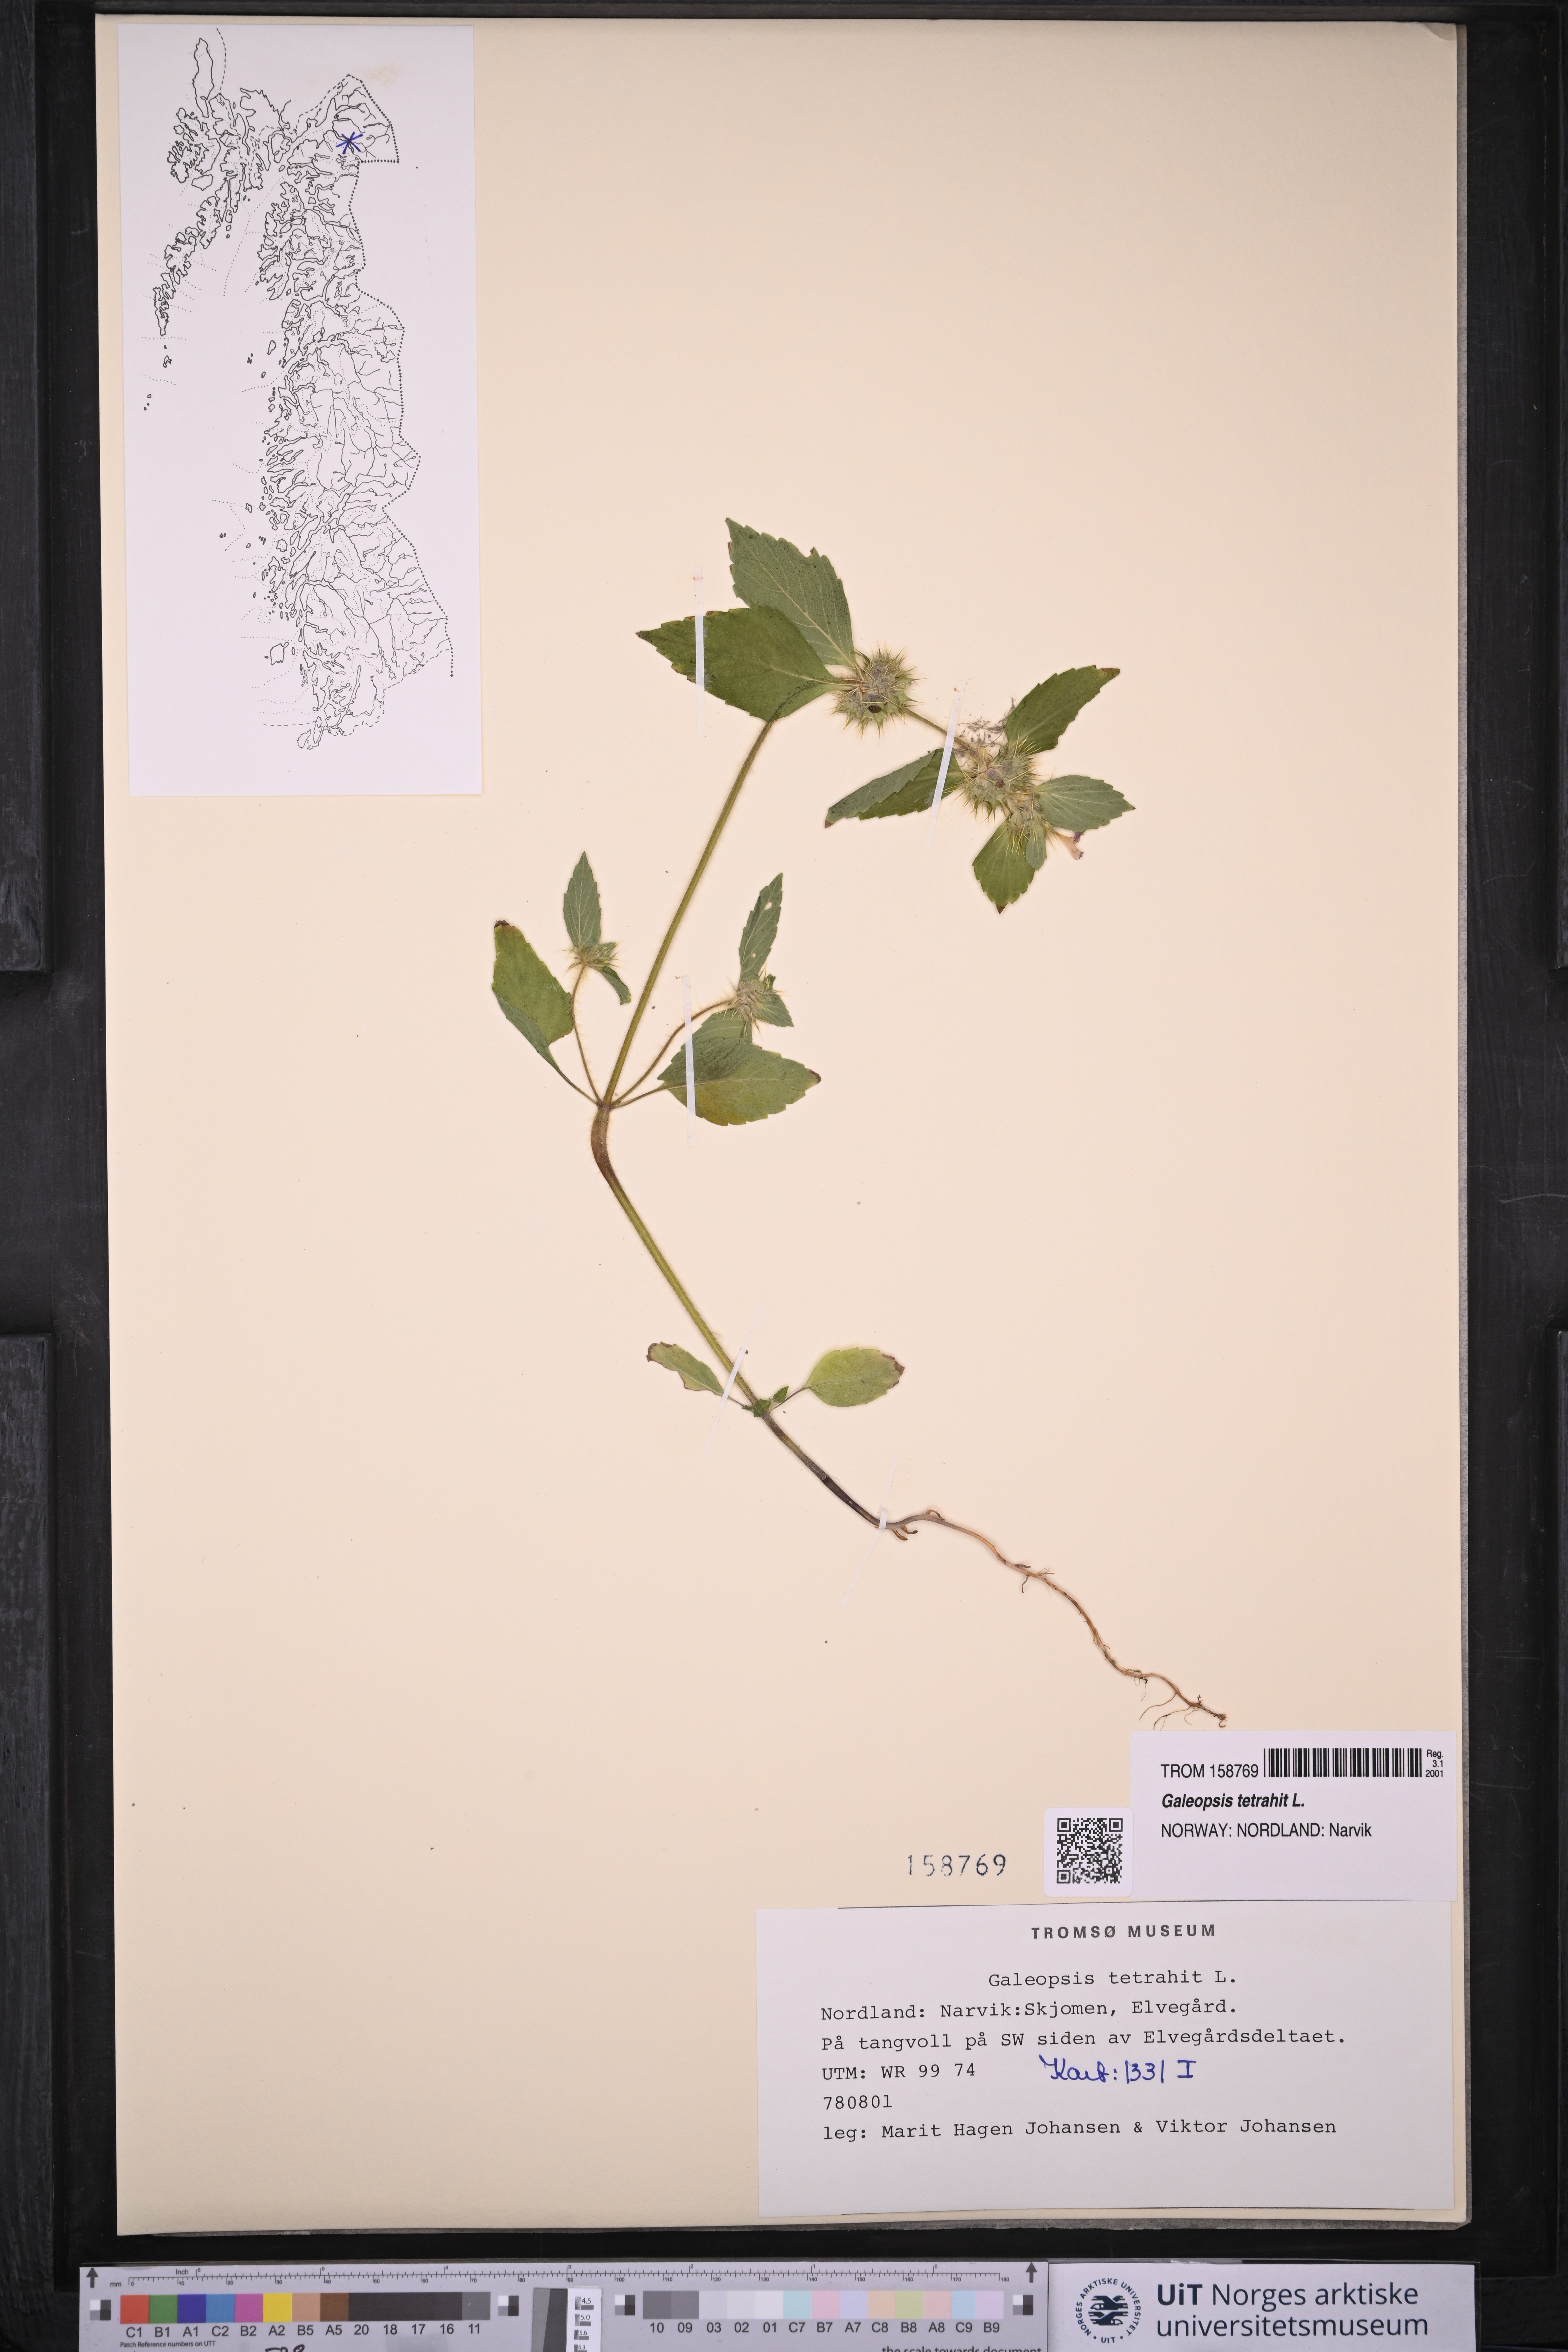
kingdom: Plantae
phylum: Tracheophyta
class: Magnoliopsida
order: Lamiales
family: Lamiaceae
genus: Galeopsis
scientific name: Galeopsis tetrahit
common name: Common hemp-nettle
